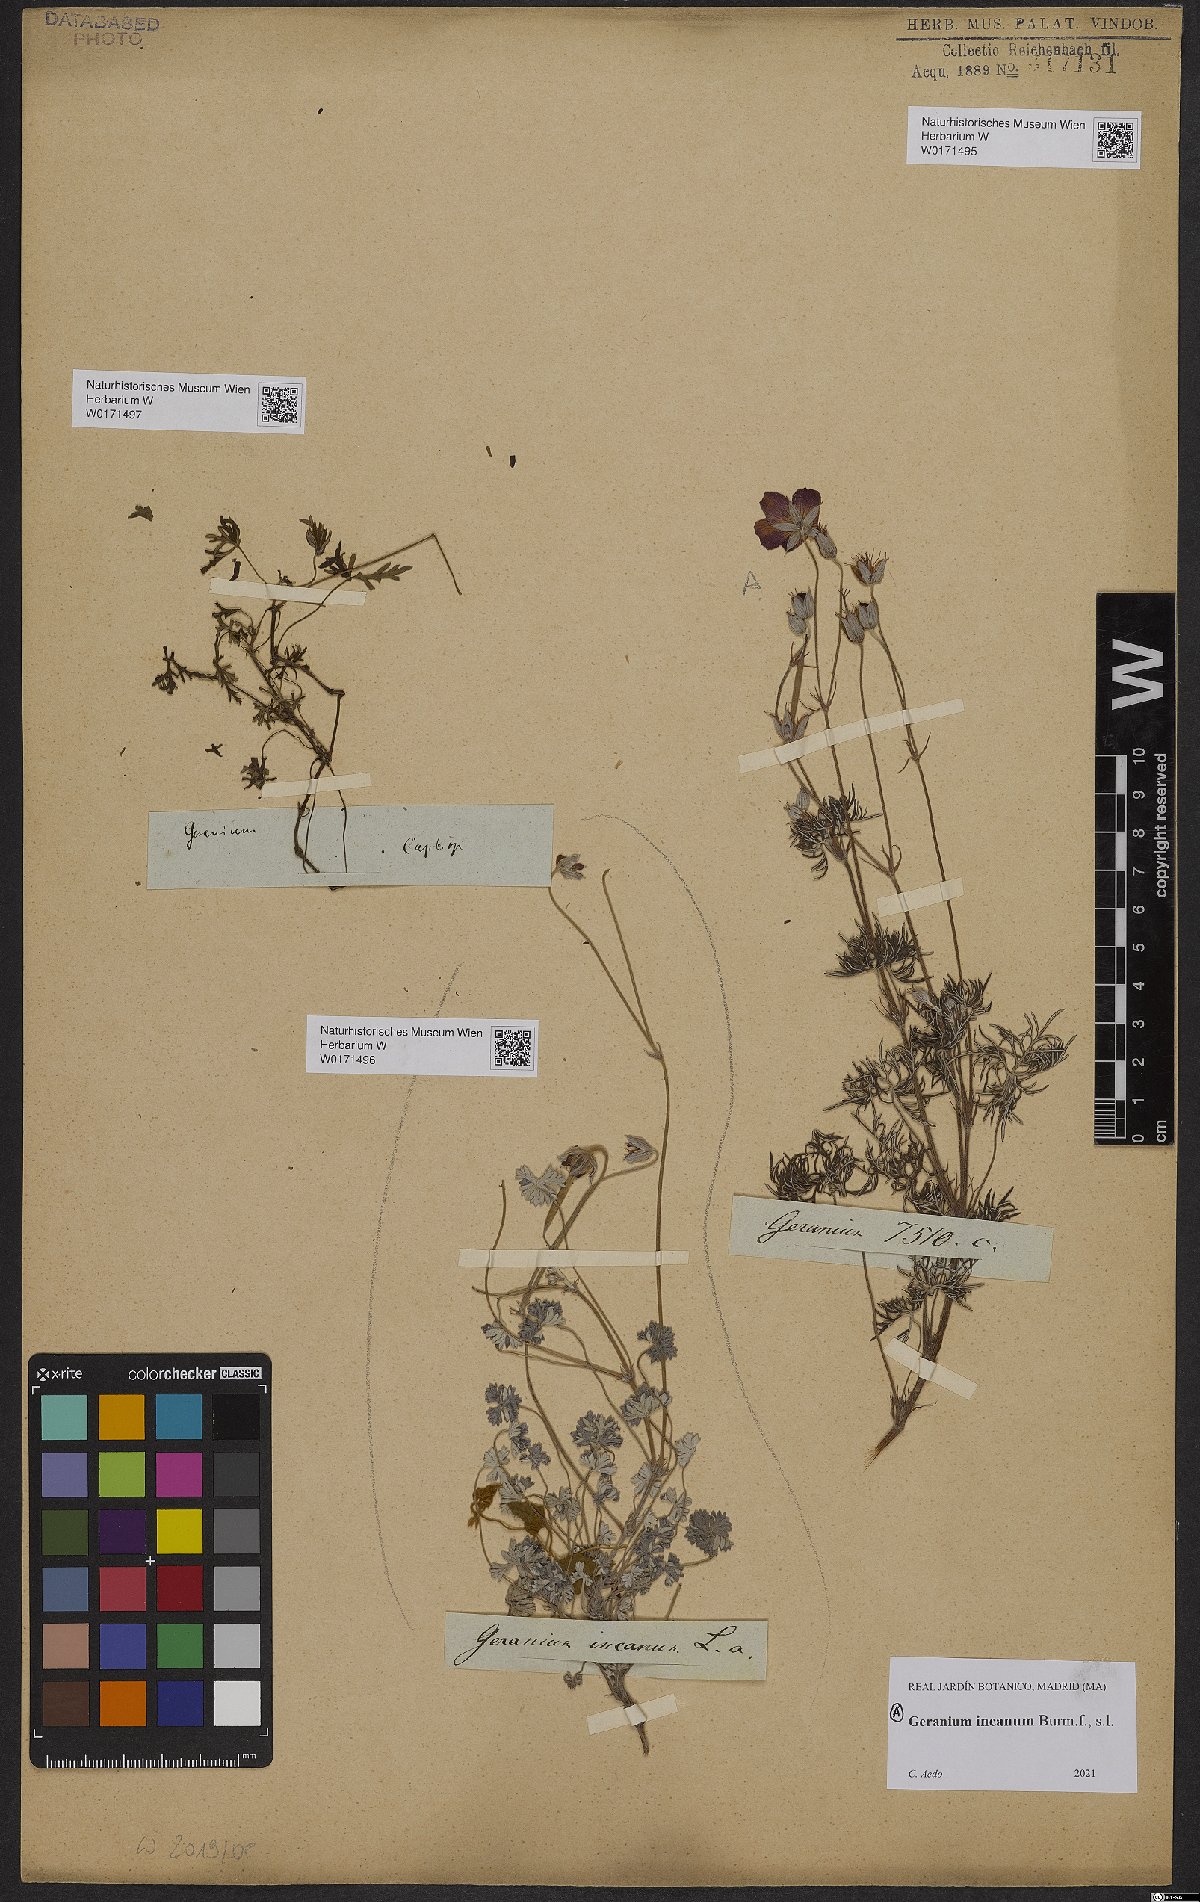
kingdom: Plantae
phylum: Tracheophyta
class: Magnoliopsida
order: Geraniales
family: Geraniaceae
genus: Geranium
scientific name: Geranium incanum
